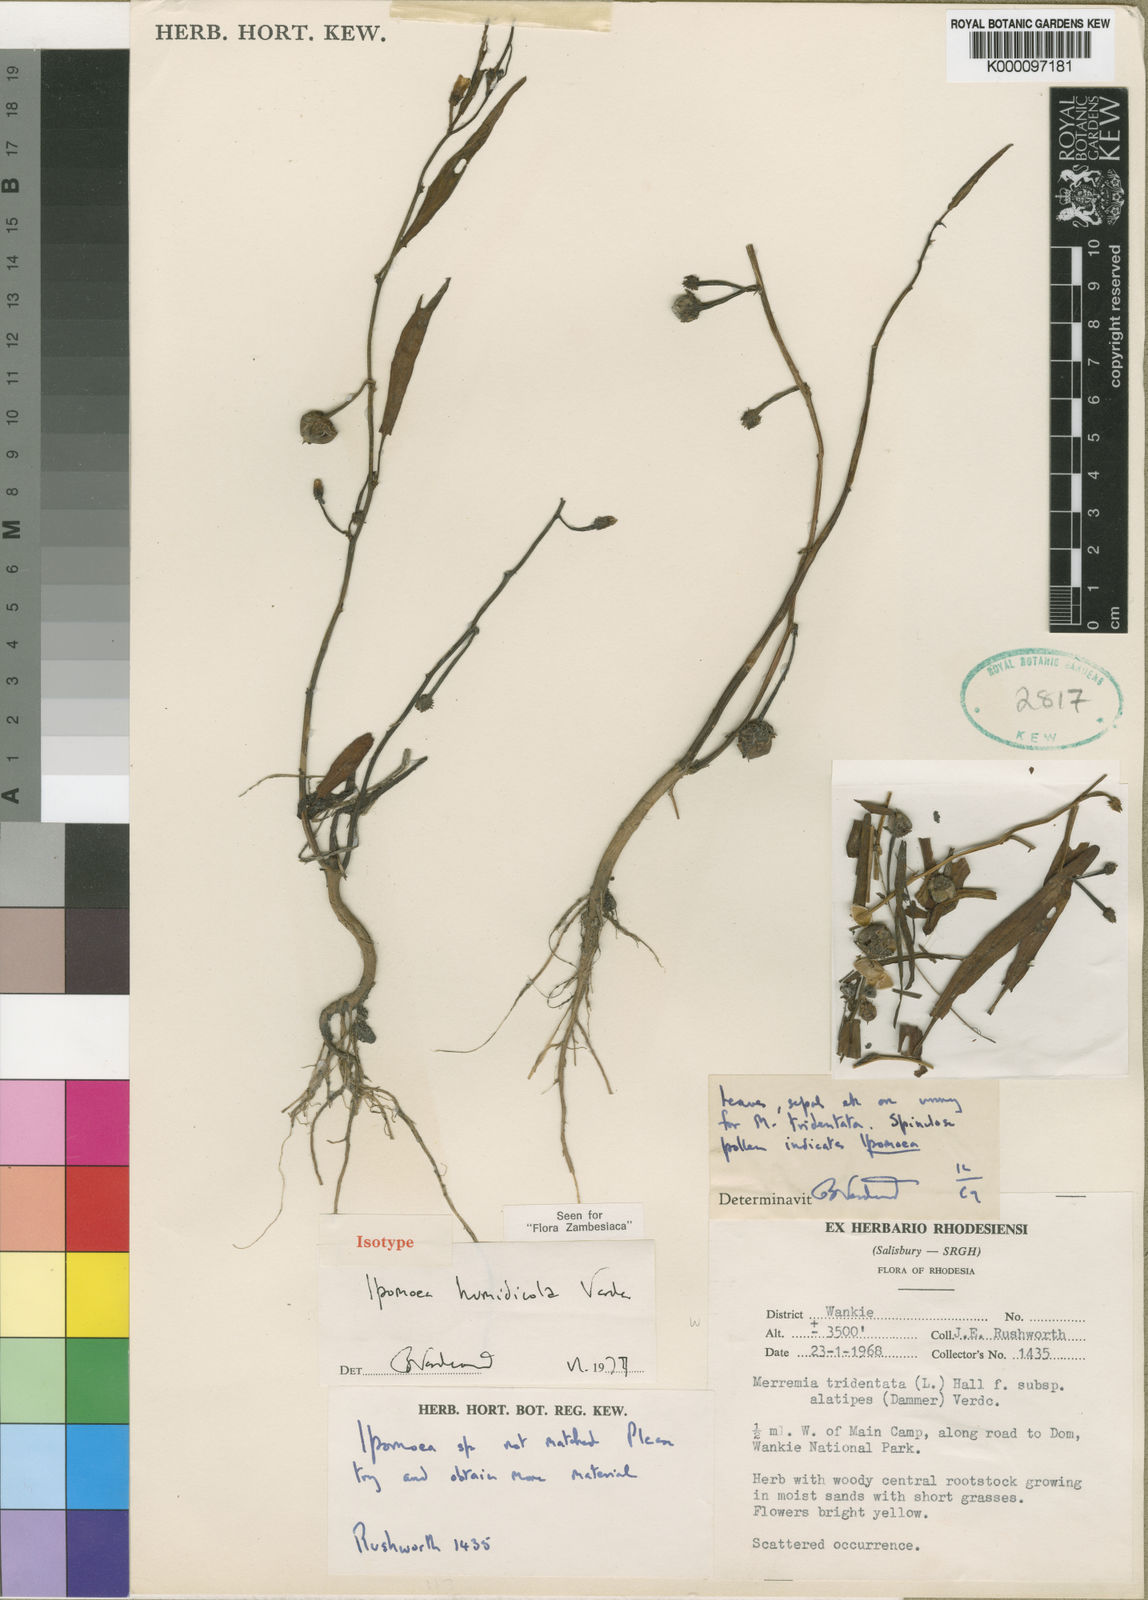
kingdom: Plantae
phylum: Tracheophyta
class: Magnoliopsida
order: Solanales
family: Convolvulaceae
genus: Ipomoea
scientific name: Ipomoea humidicola
